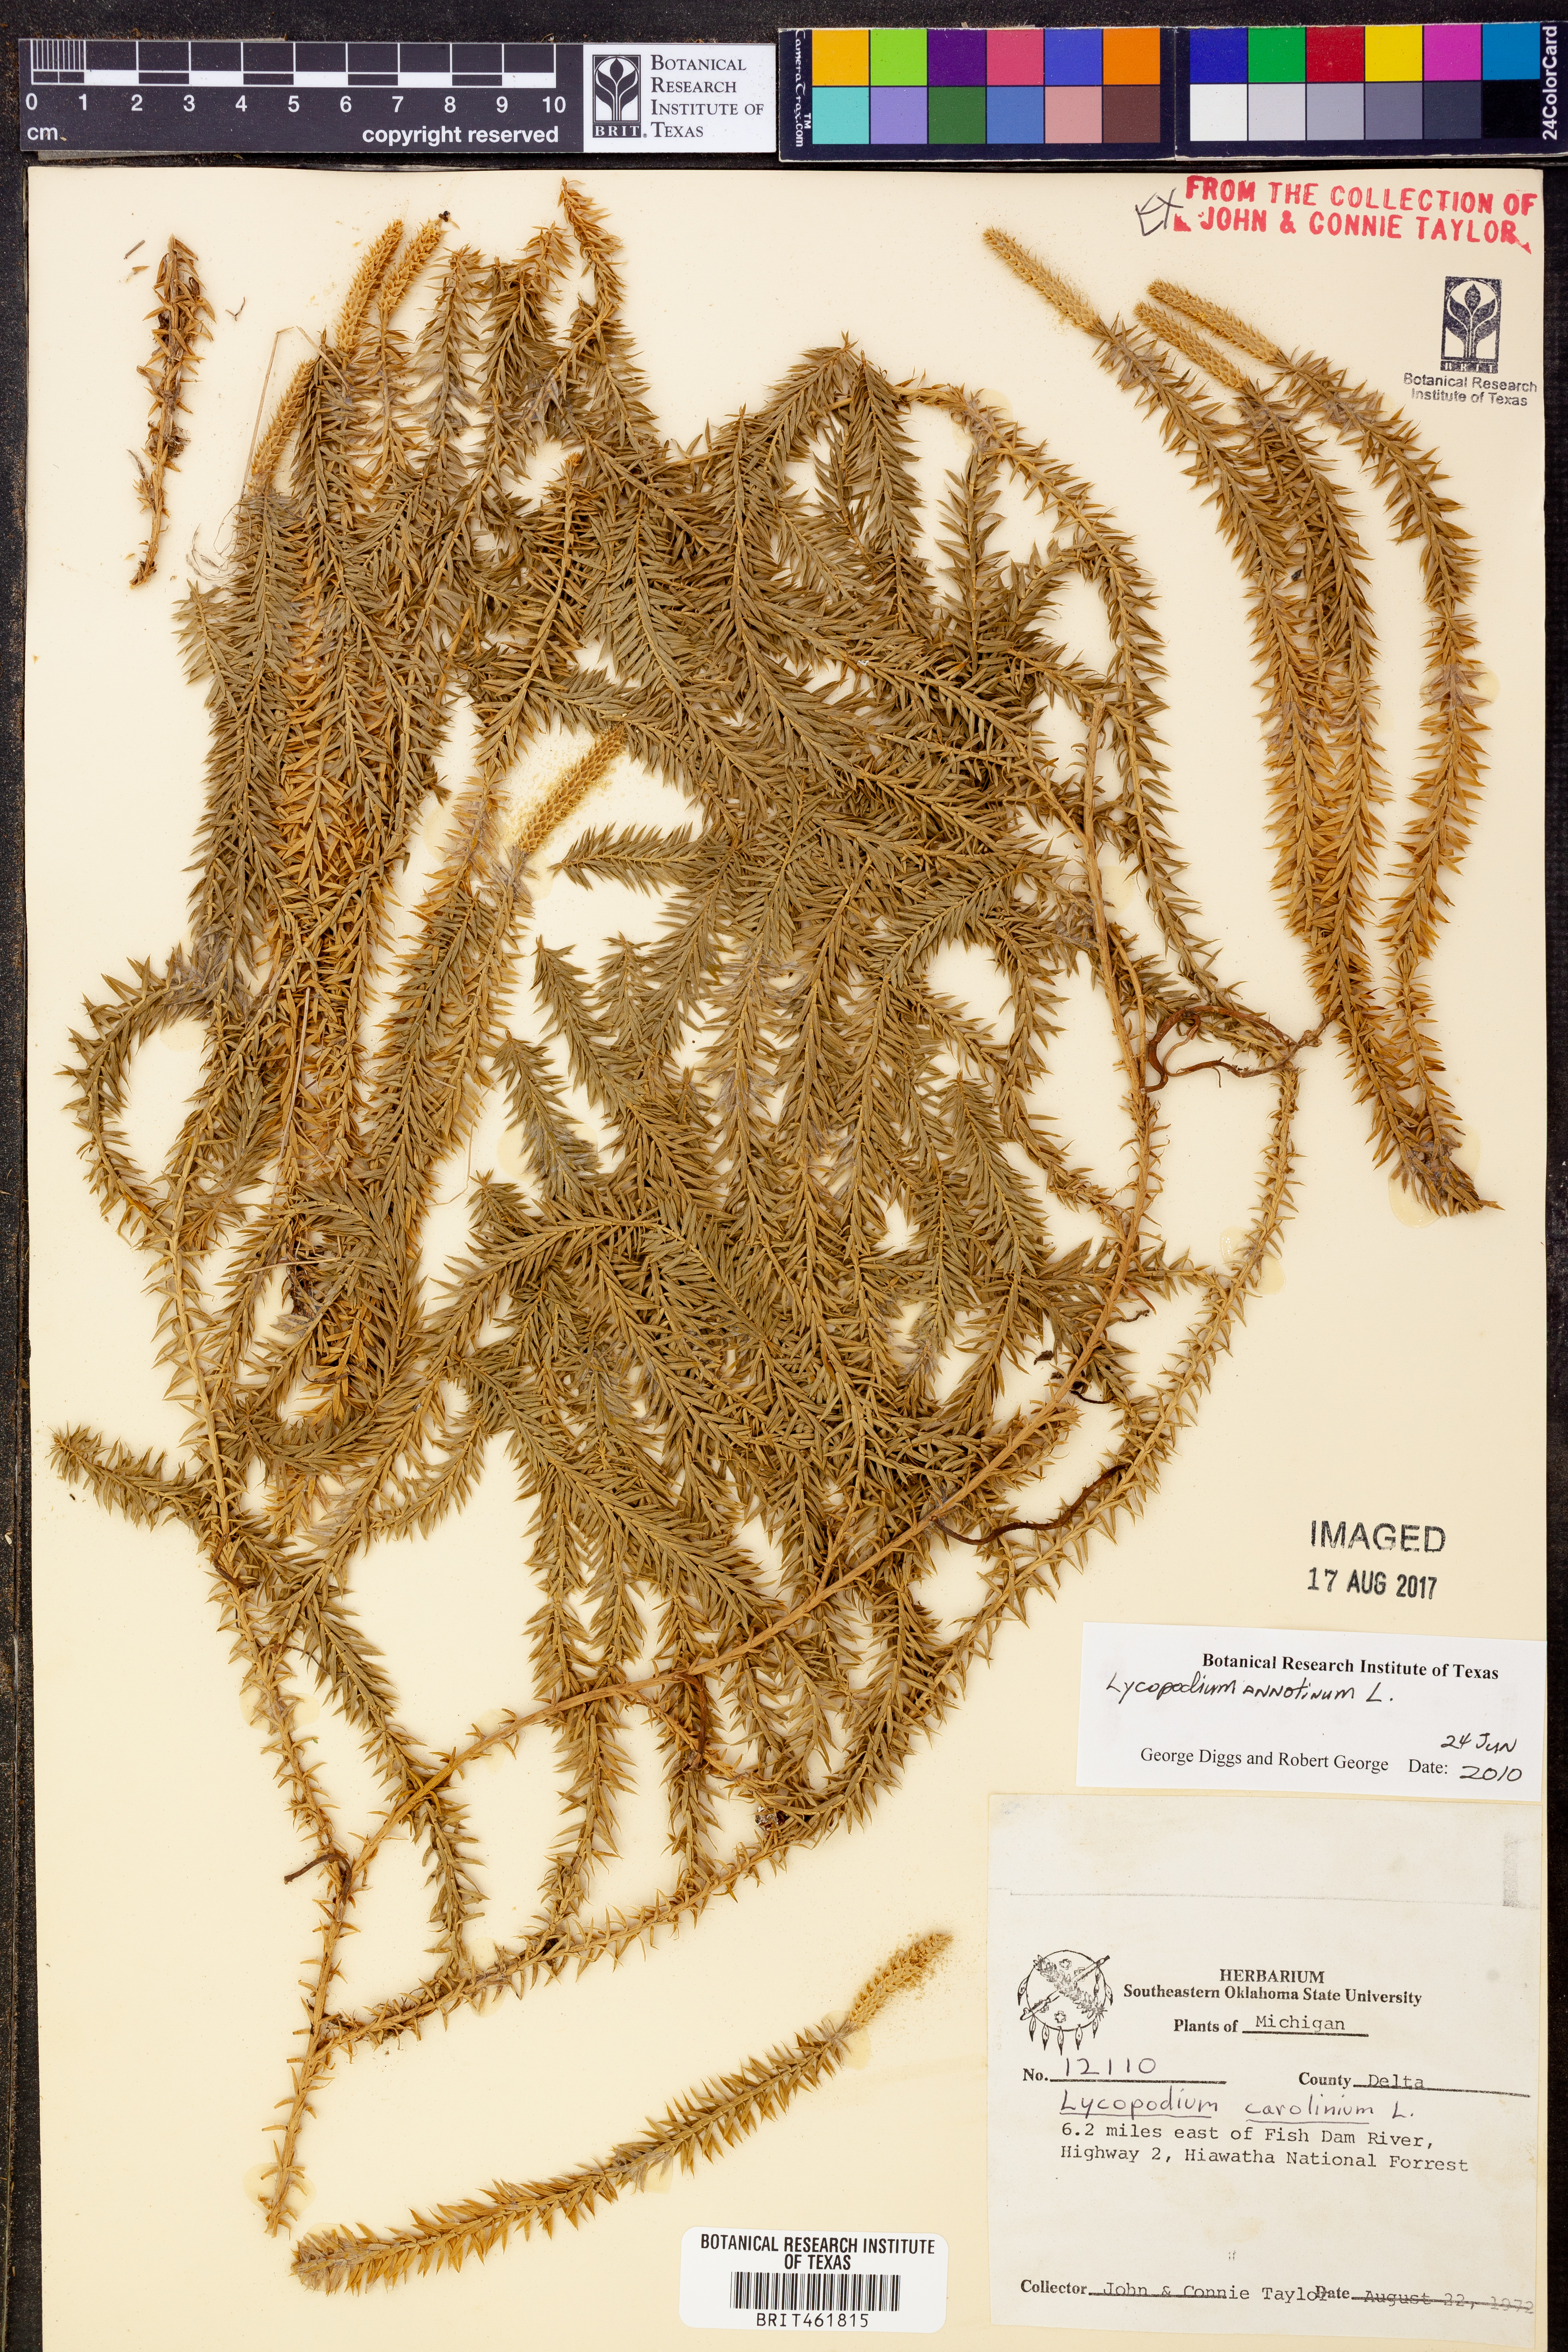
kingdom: Plantae
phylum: Tracheophyta
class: Lycopodiopsida
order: Lycopodiales
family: Lycopodiaceae
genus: Spinulum
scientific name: Spinulum annotinum
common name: Interrupted club-moss
